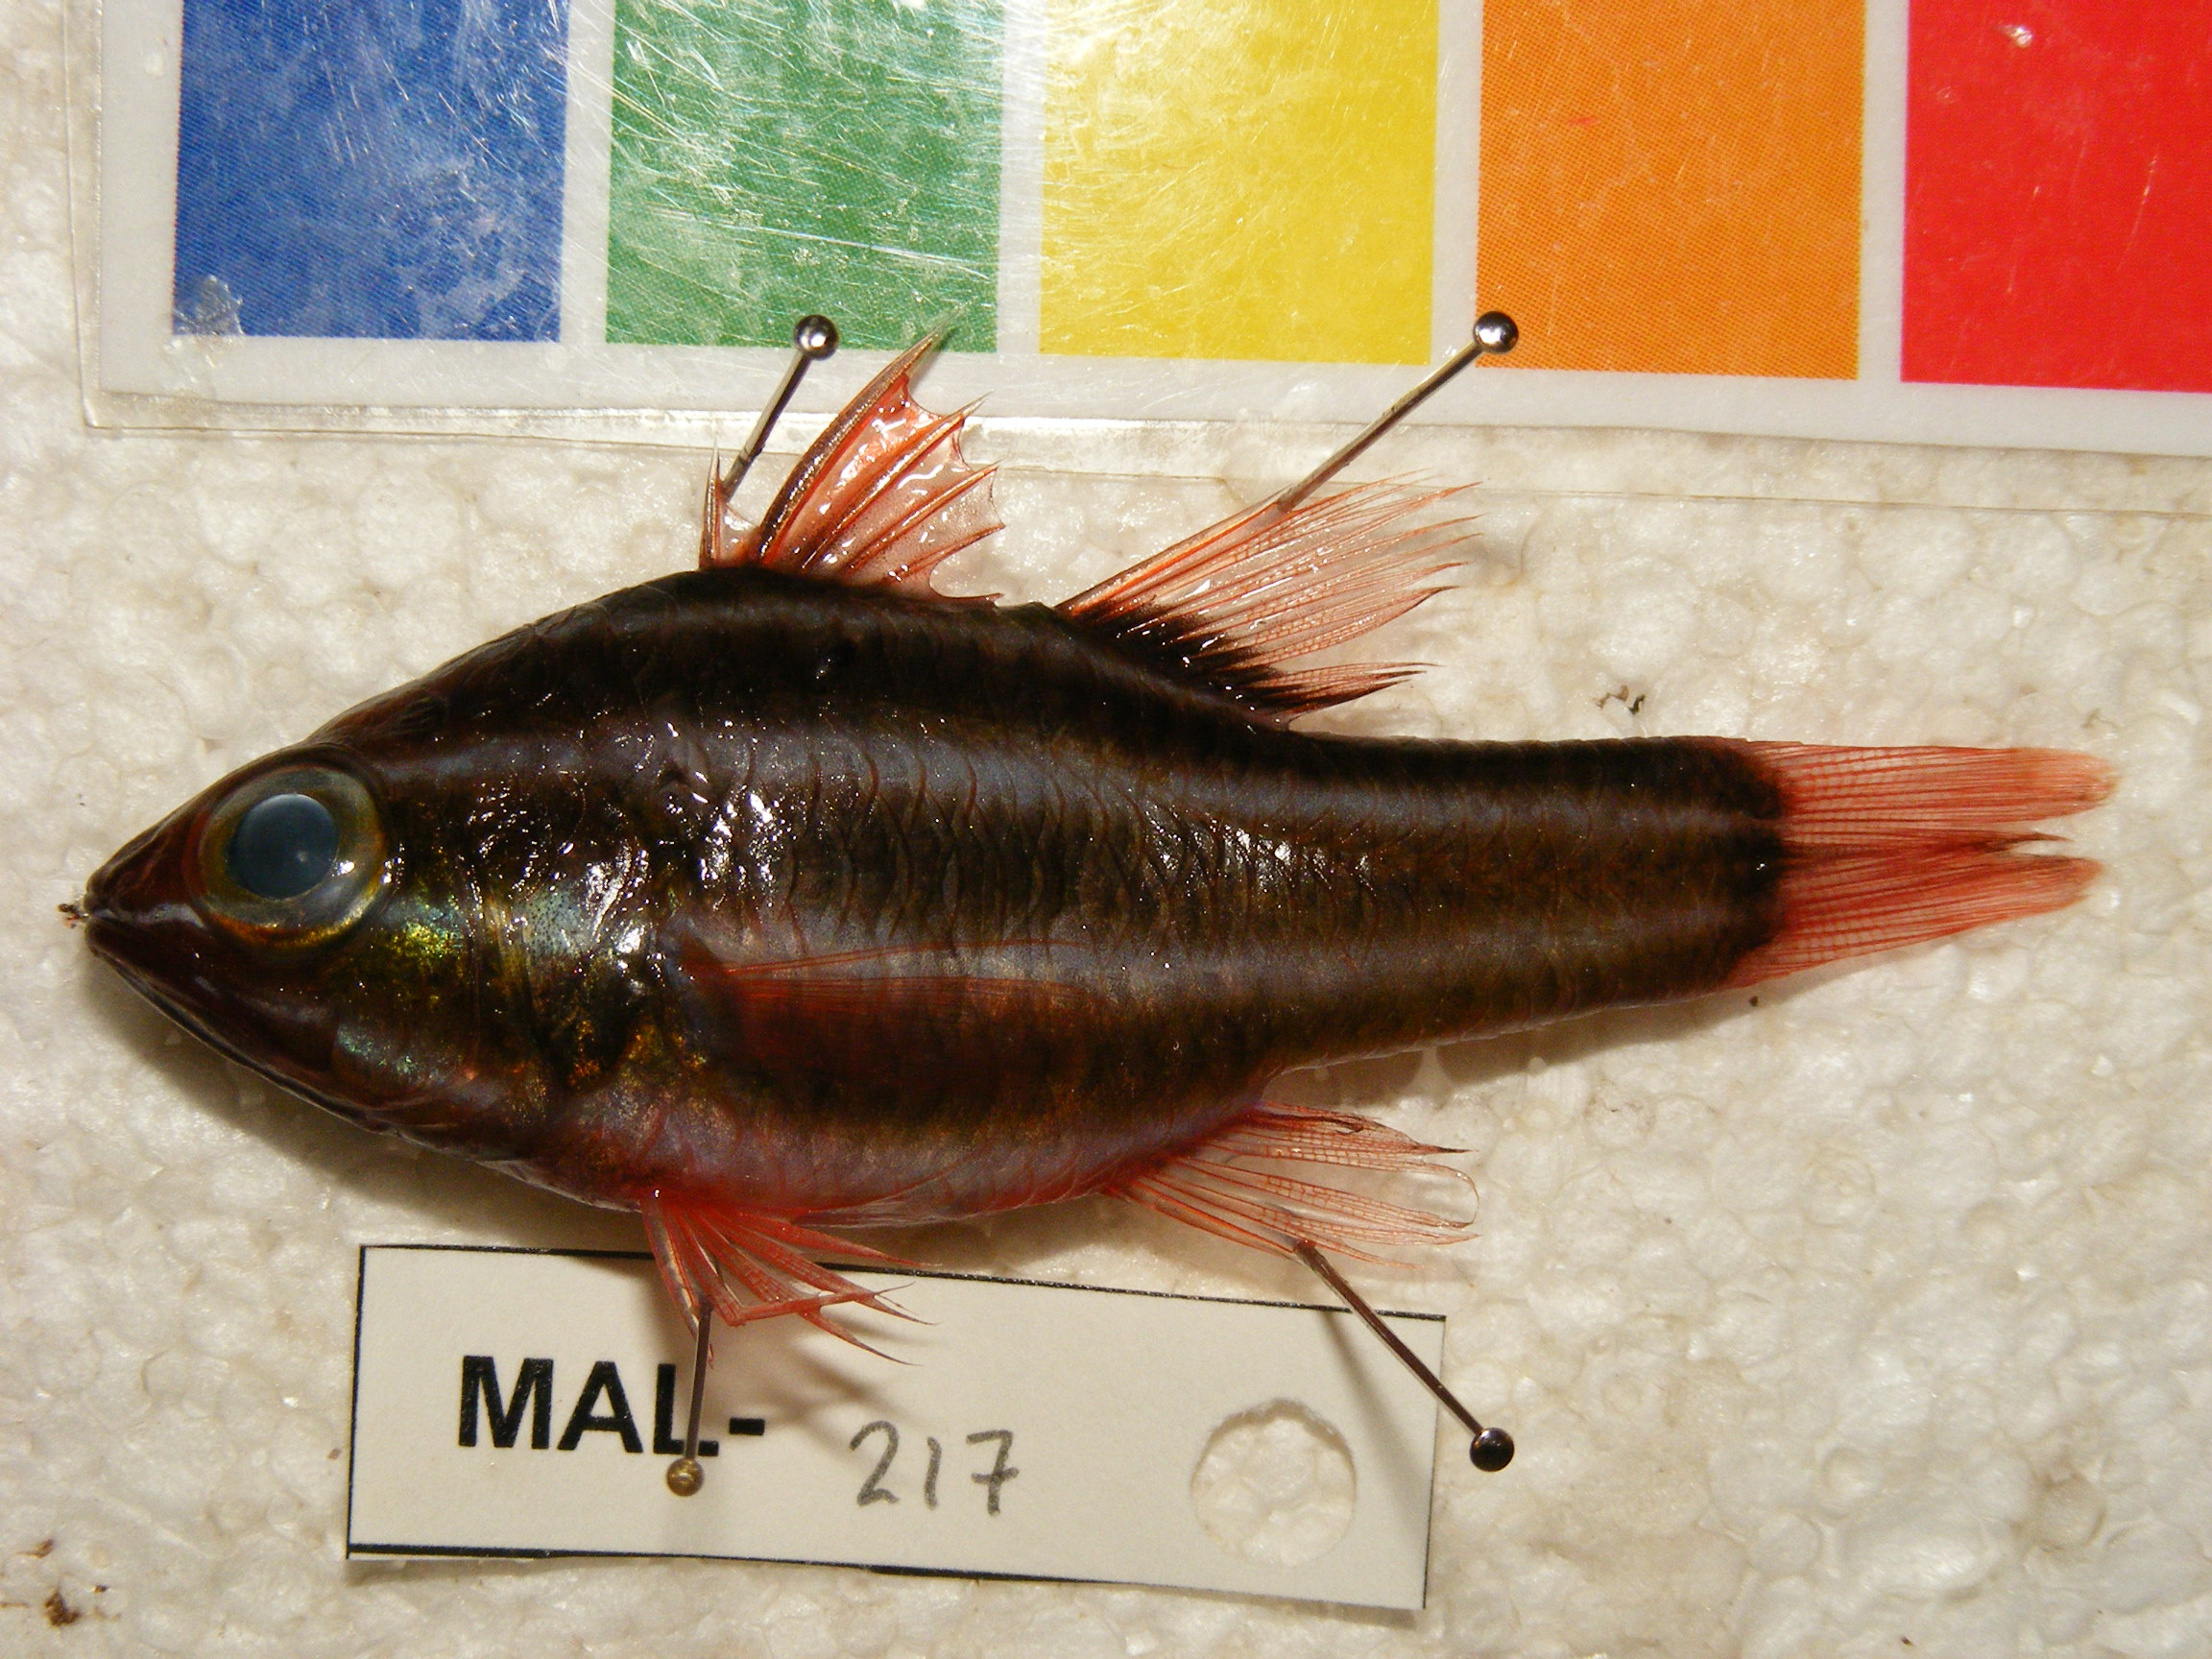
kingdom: Animalia
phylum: Chordata
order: Perciformes
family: Apogonidae
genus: Ostorhinchus
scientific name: Ostorhinchus nigrofasciatus
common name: Blackstripe cardinalfish
